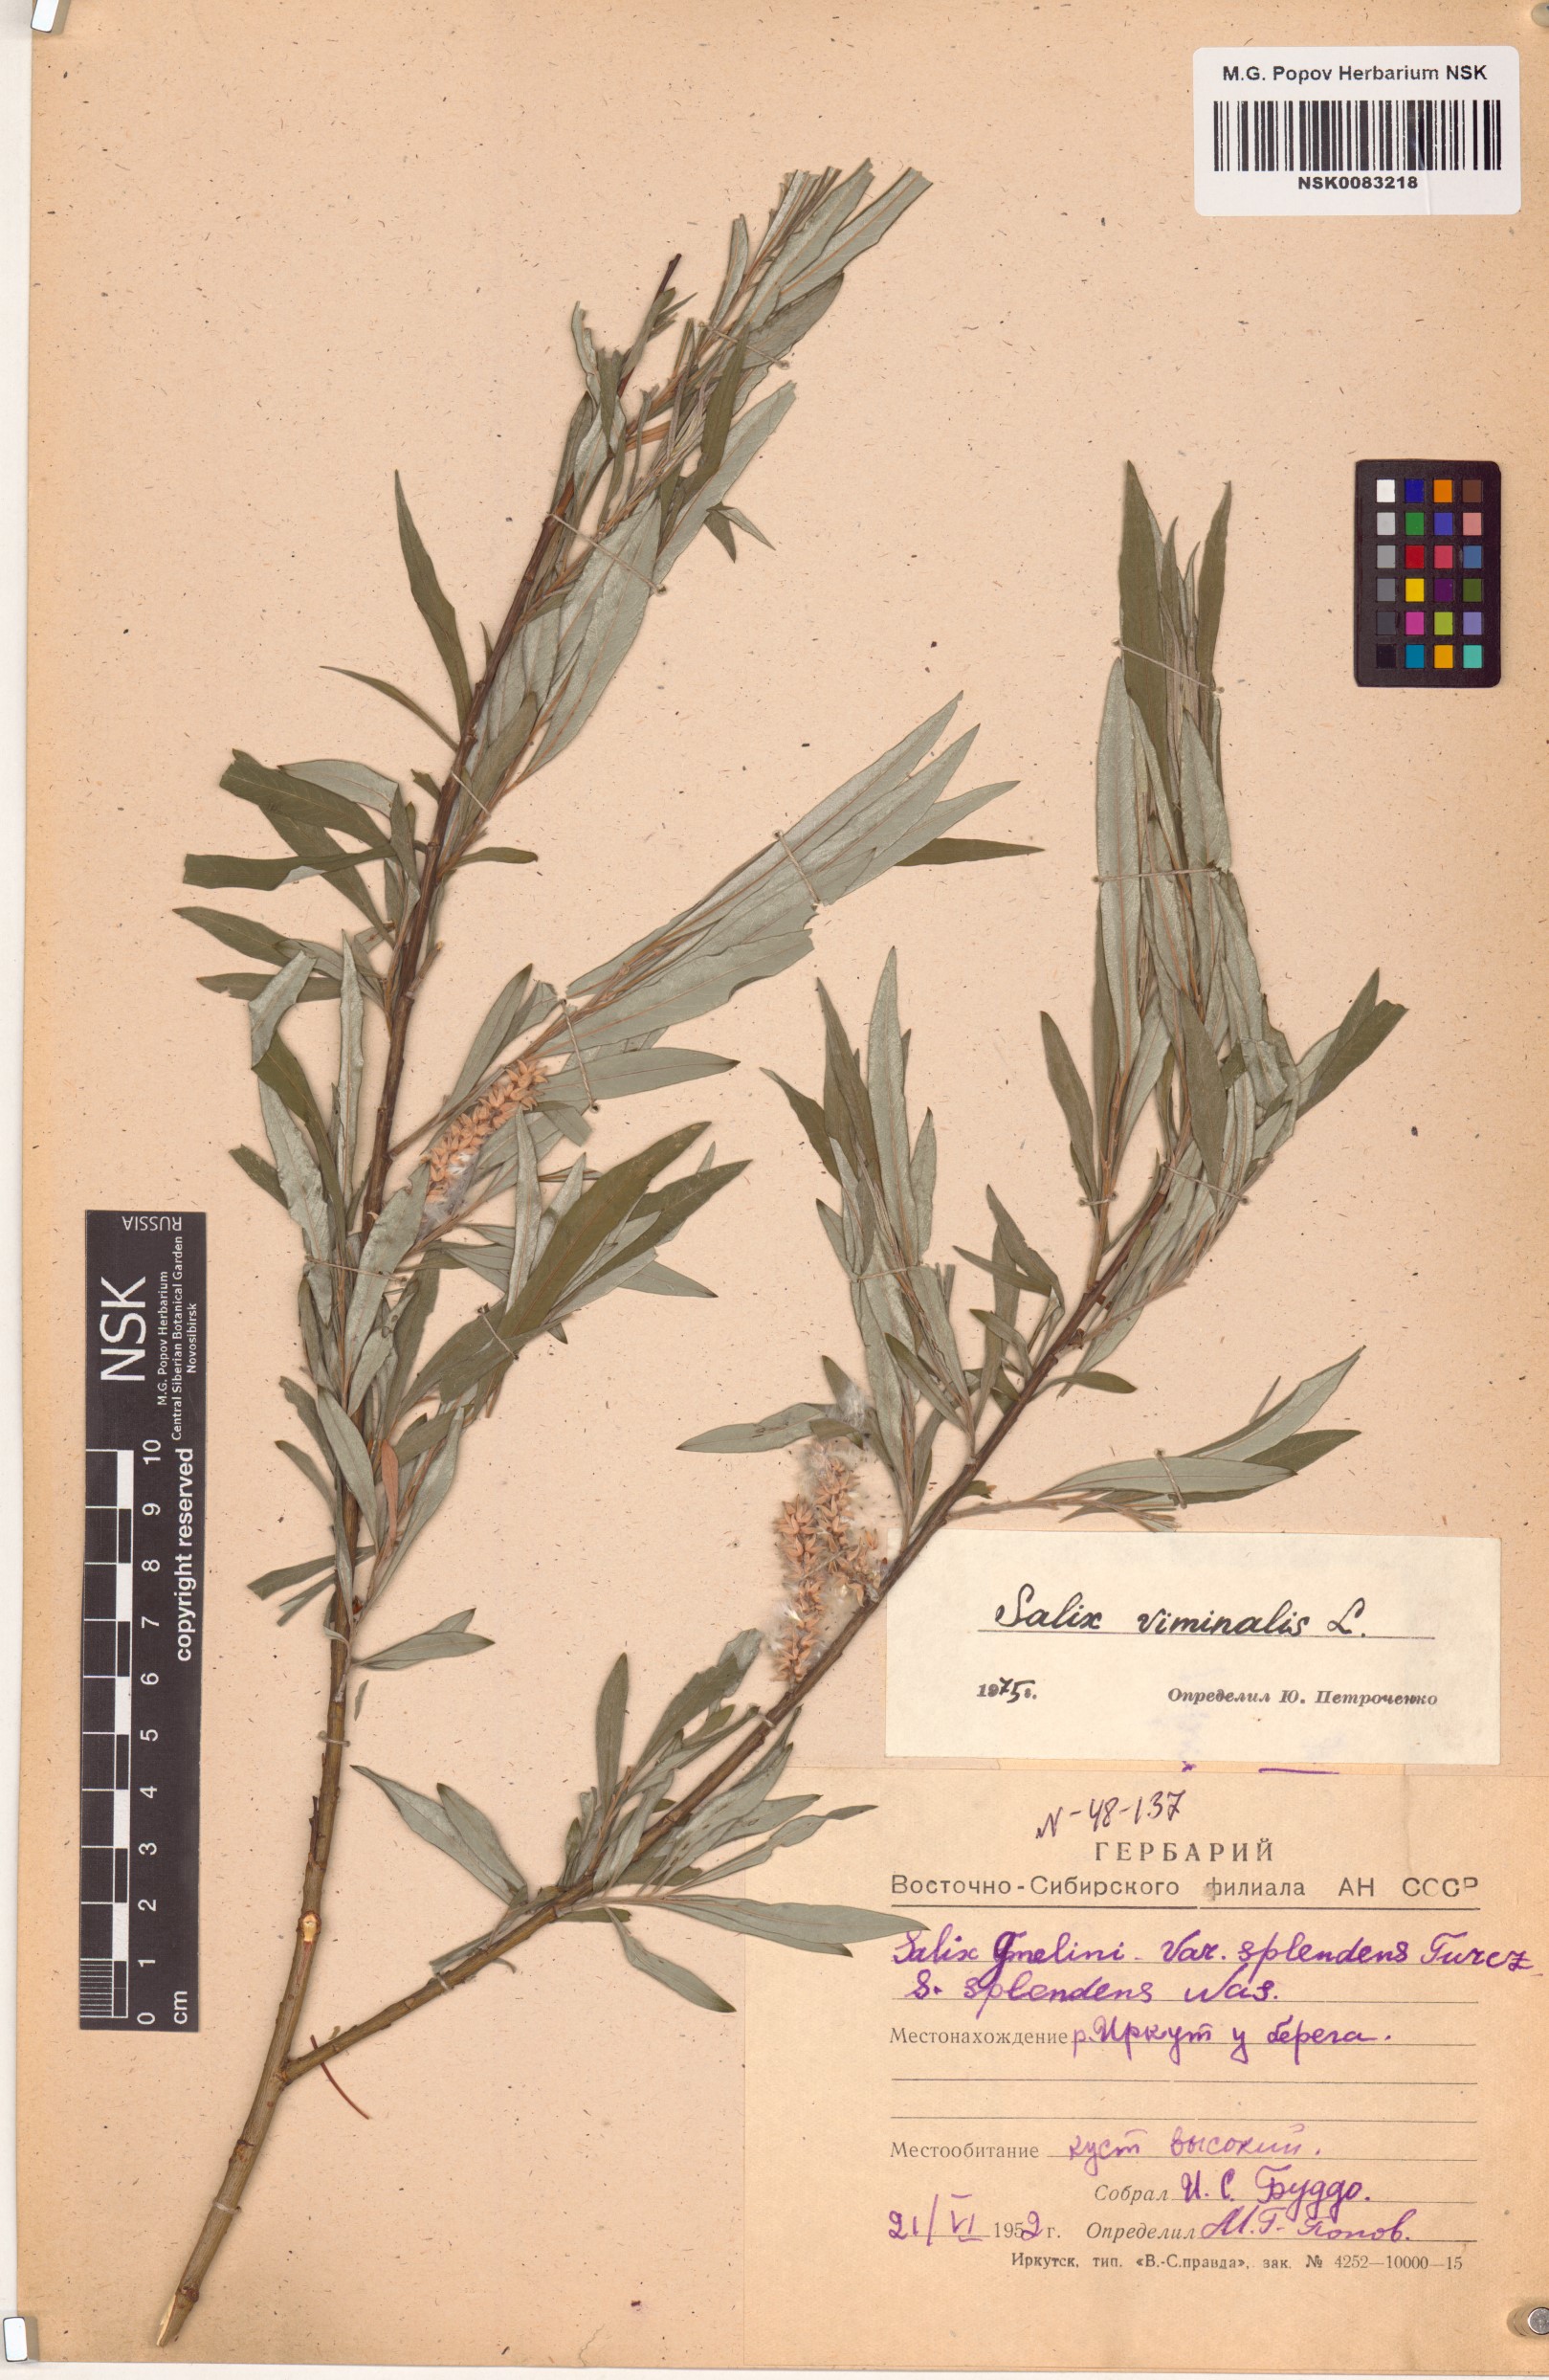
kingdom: Plantae
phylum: Tracheophyta
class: Magnoliopsida
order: Malpighiales
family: Salicaceae
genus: Salix
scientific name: Salix viminalis
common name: Osier
